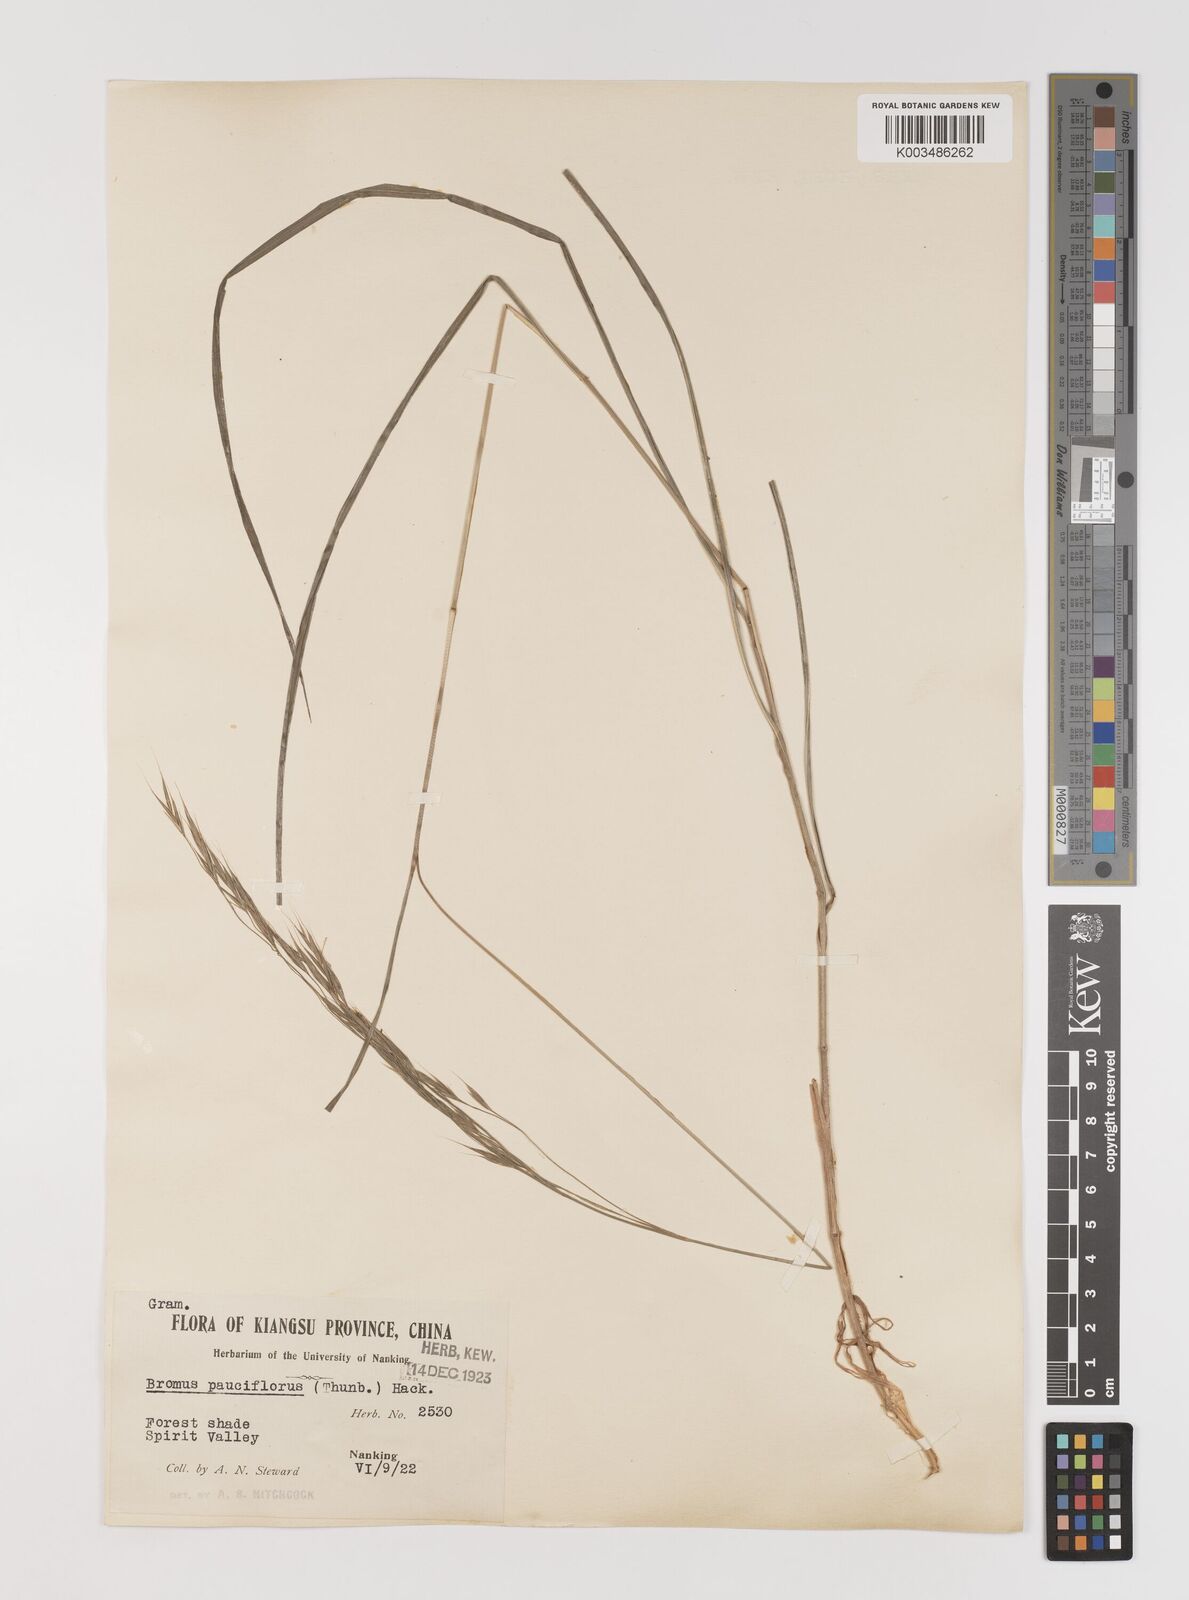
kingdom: Plantae
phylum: Tracheophyta
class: Liliopsida
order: Poales
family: Poaceae
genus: Bromus
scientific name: Bromus remotiflorus
